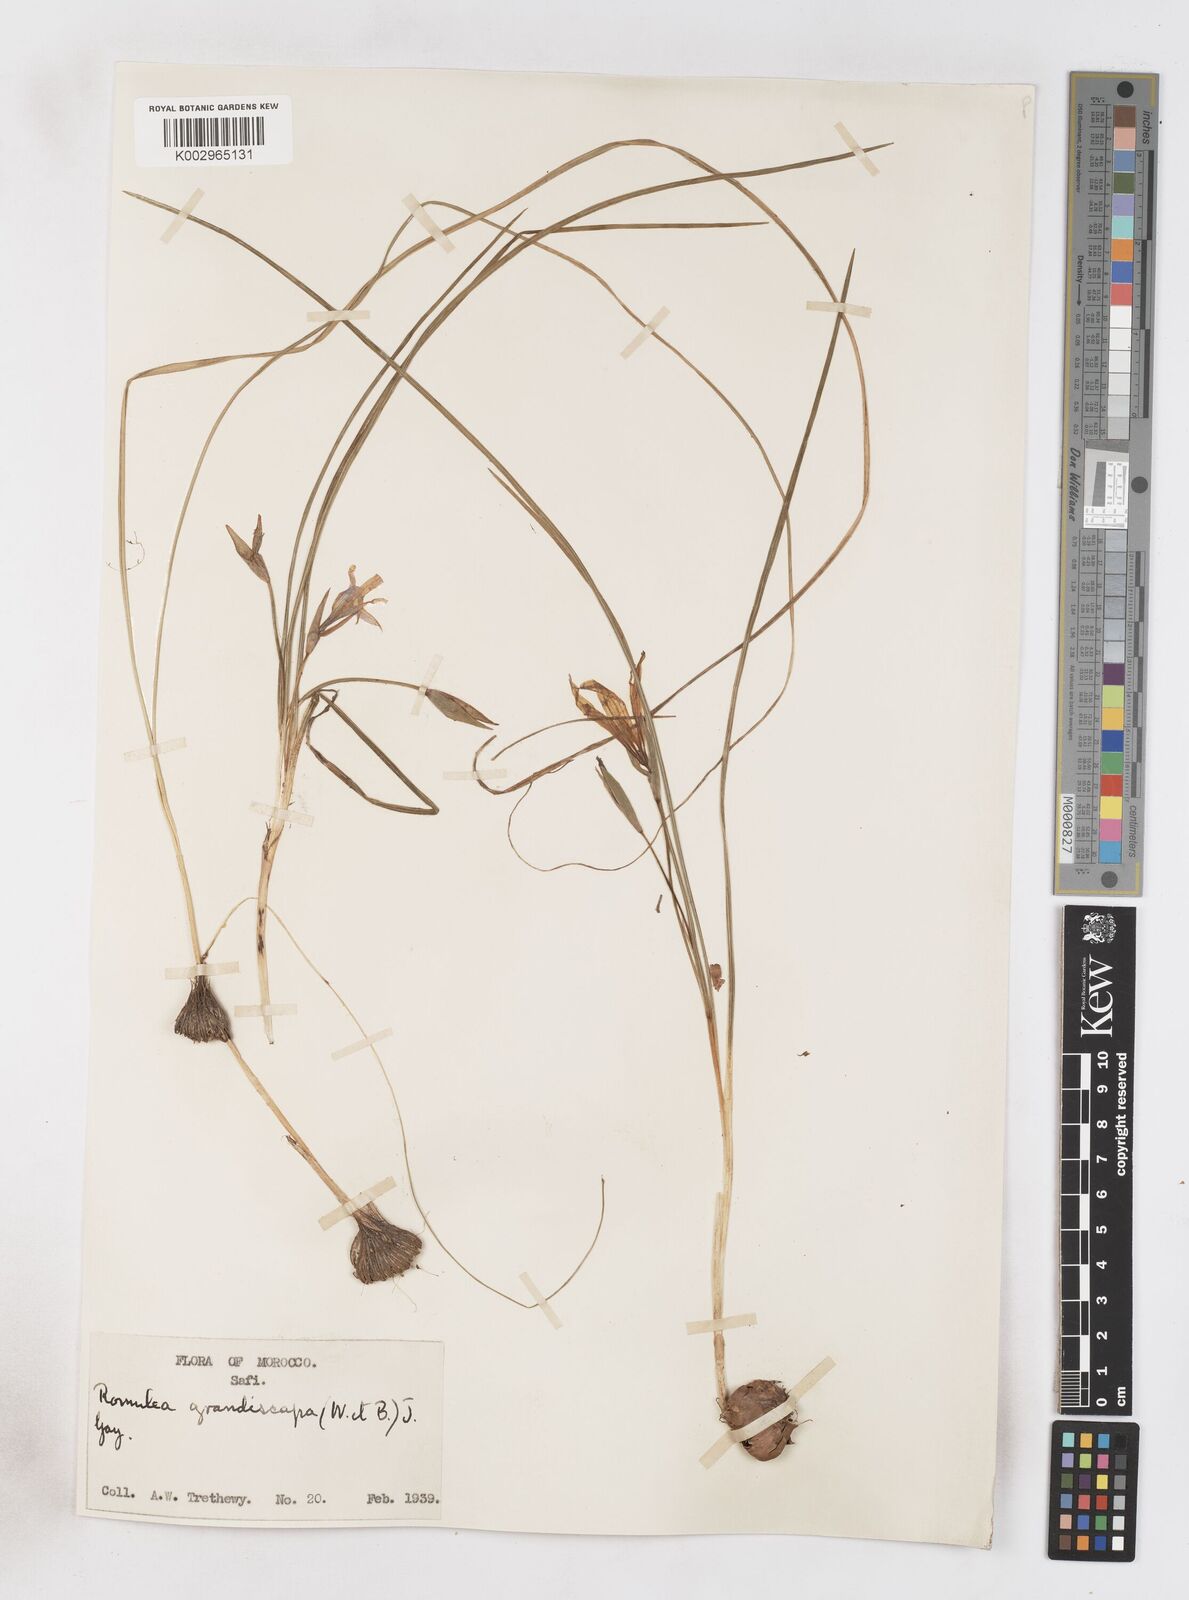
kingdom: Plantae
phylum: Tracheophyta
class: Liliopsida
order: Asparagales
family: Iridaceae
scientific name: Iridaceae
